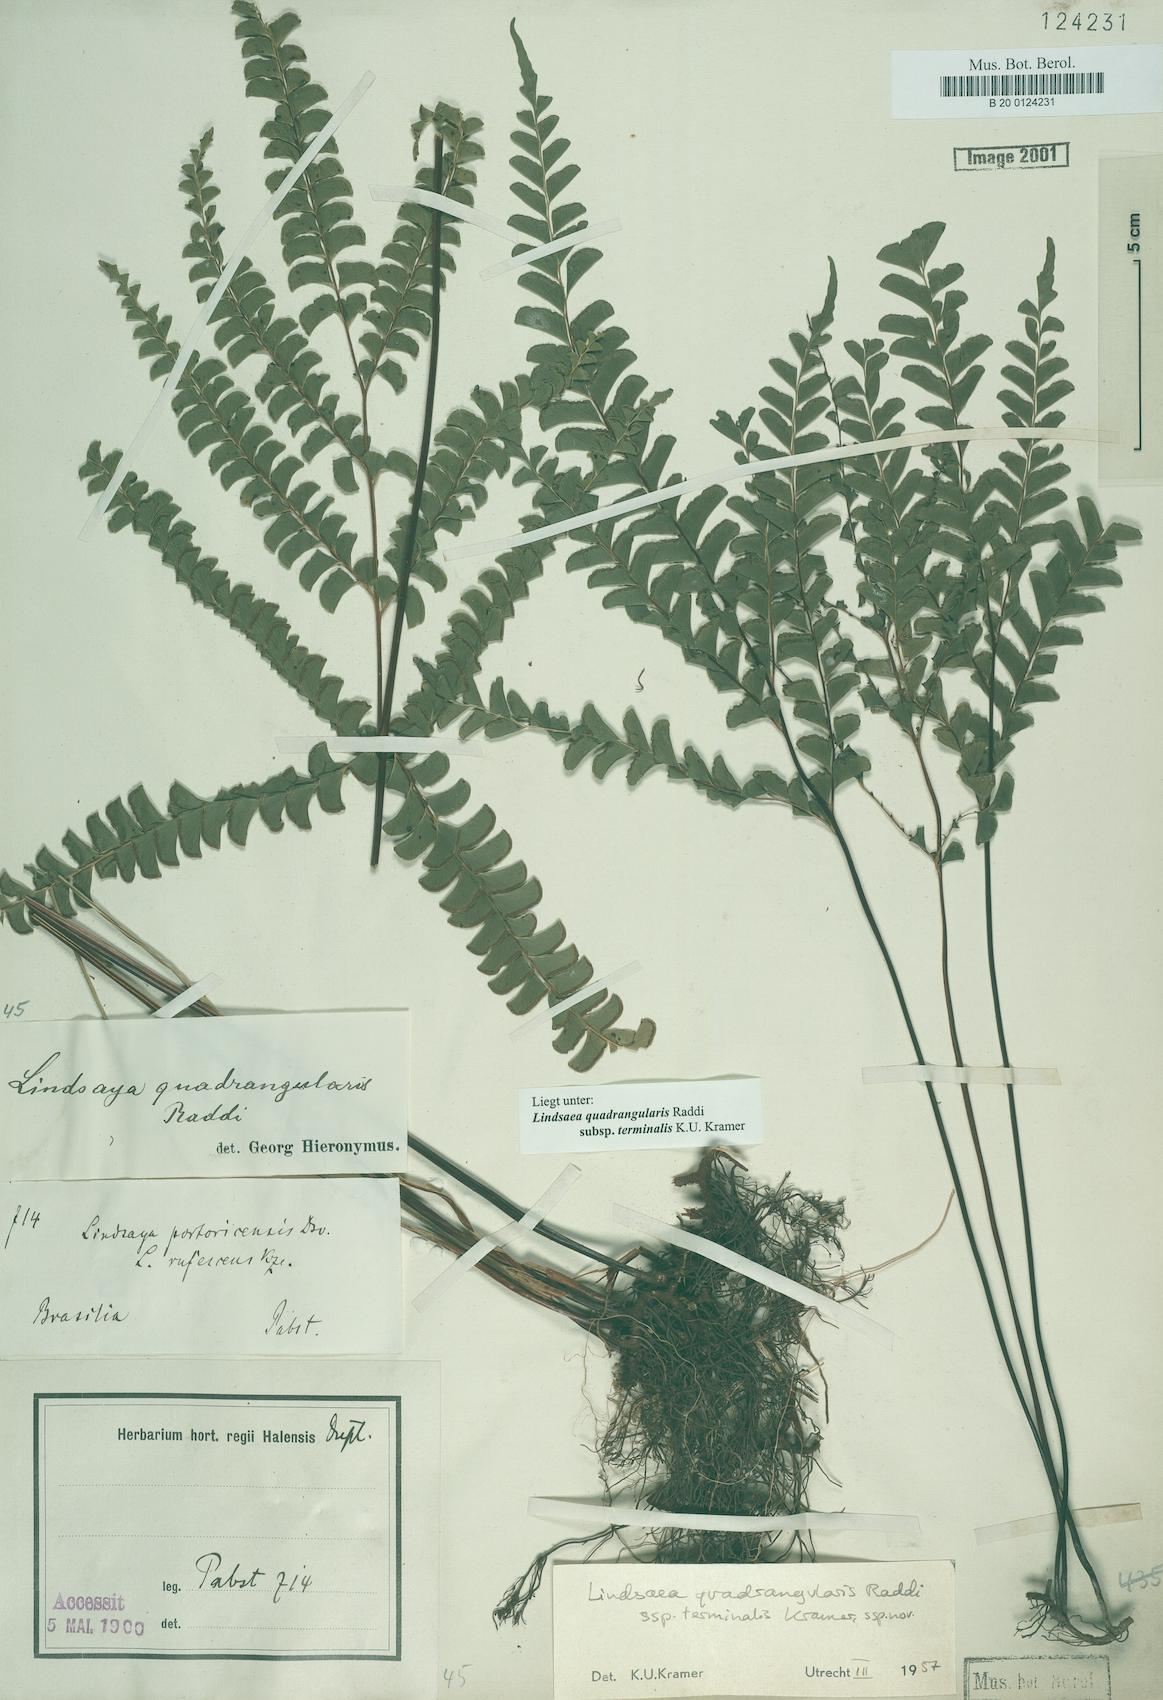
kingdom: Plantae
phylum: Tracheophyta
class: Polypodiopsida
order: Polypodiales
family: Lindsaeaceae
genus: Lindsaea
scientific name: Lindsaea terminalis
